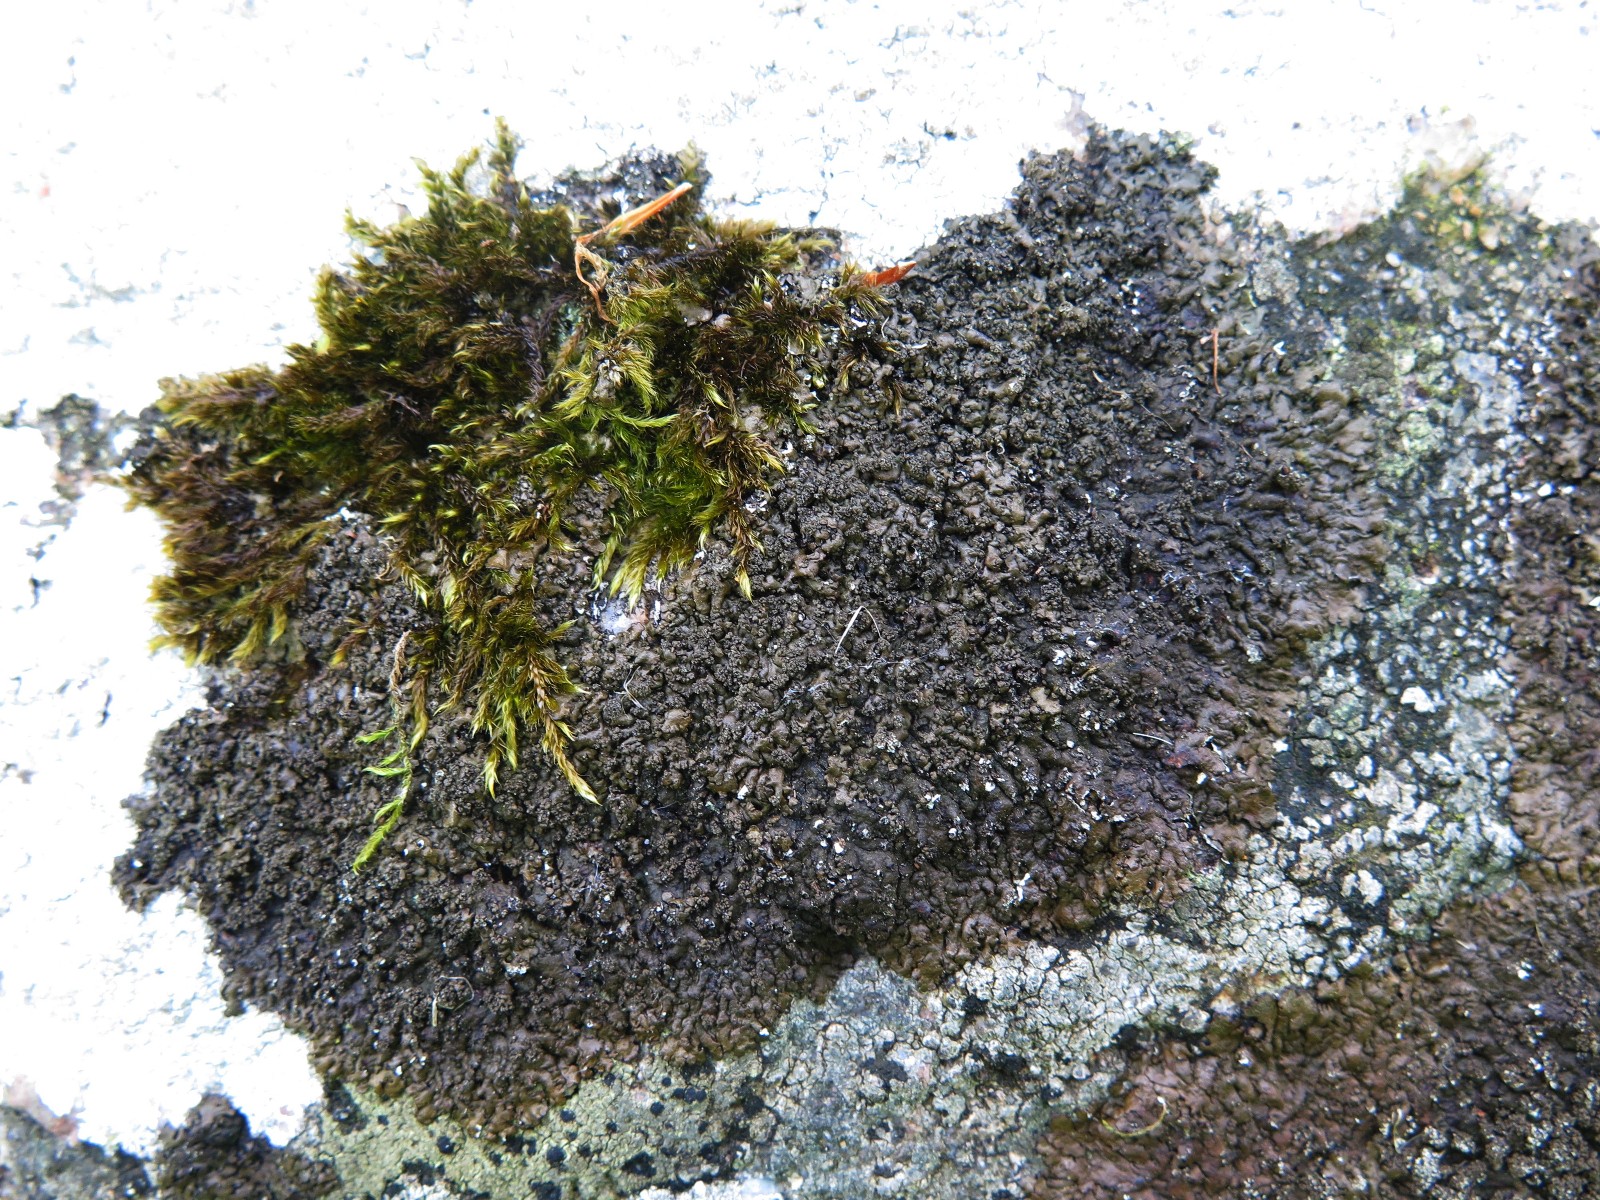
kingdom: Fungi
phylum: Ascomycota
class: Lecanoromycetes
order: Lecanorales
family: Parmeliaceae
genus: Xanthoparmelia
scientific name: Xanthoparmelia verruculifera
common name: småknoppet skållav
